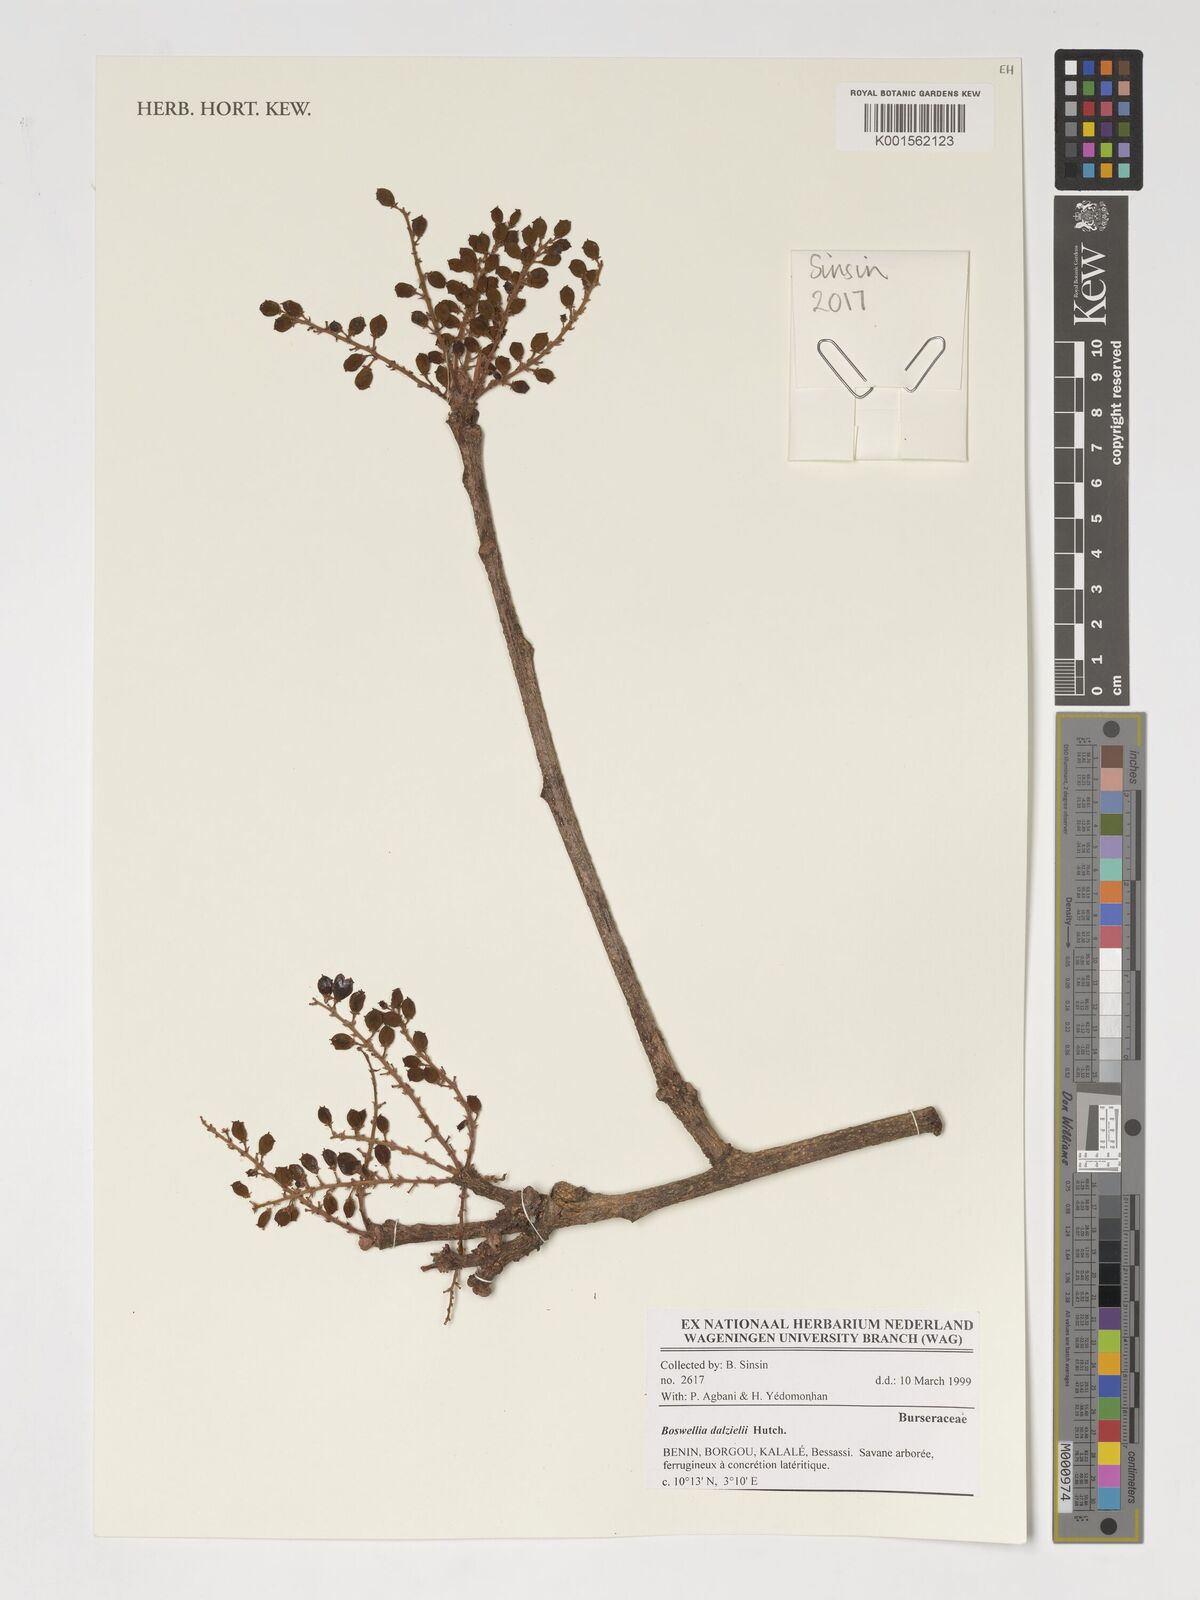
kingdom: Plantae
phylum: Tracheophyta
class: Magnoliopsida
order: Sapindales
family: Burseraceae
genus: Boswellia
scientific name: Boswellia dalzielii
